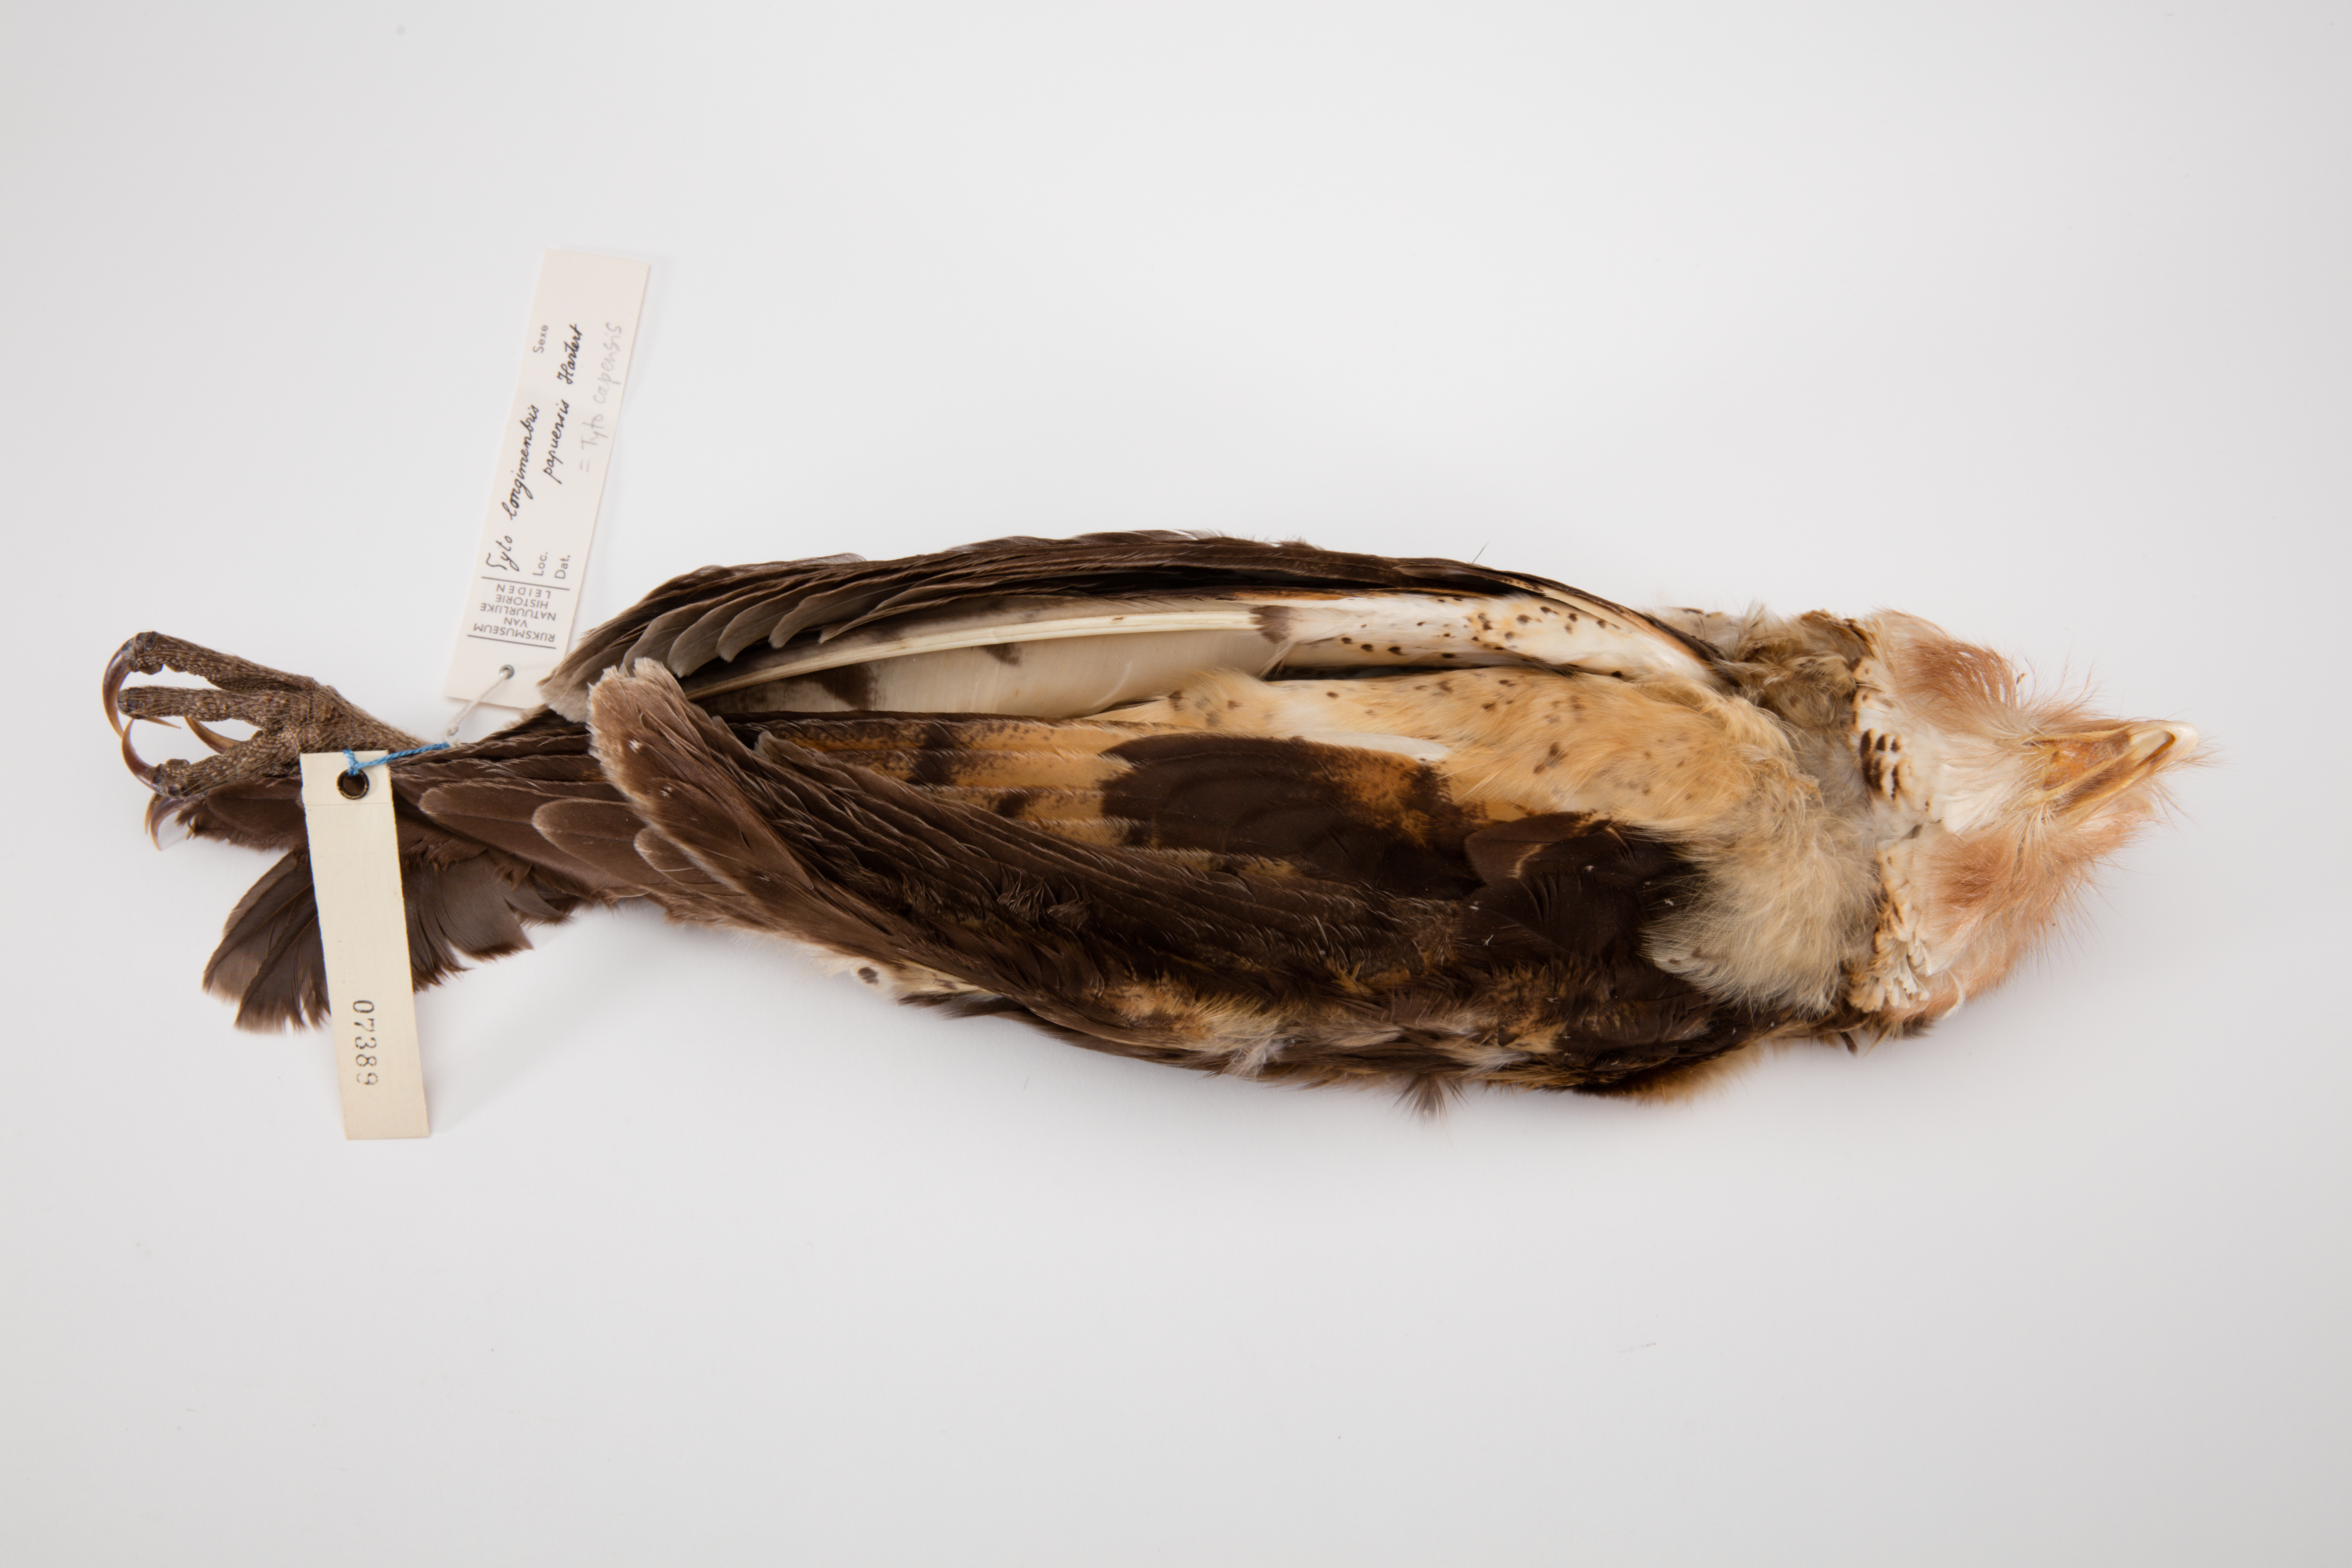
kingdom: Animalia
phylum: Chordata
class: Aves
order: Strigiformes
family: Tytonidae
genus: Tyto
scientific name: Tyto capensis
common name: African grass-owl
